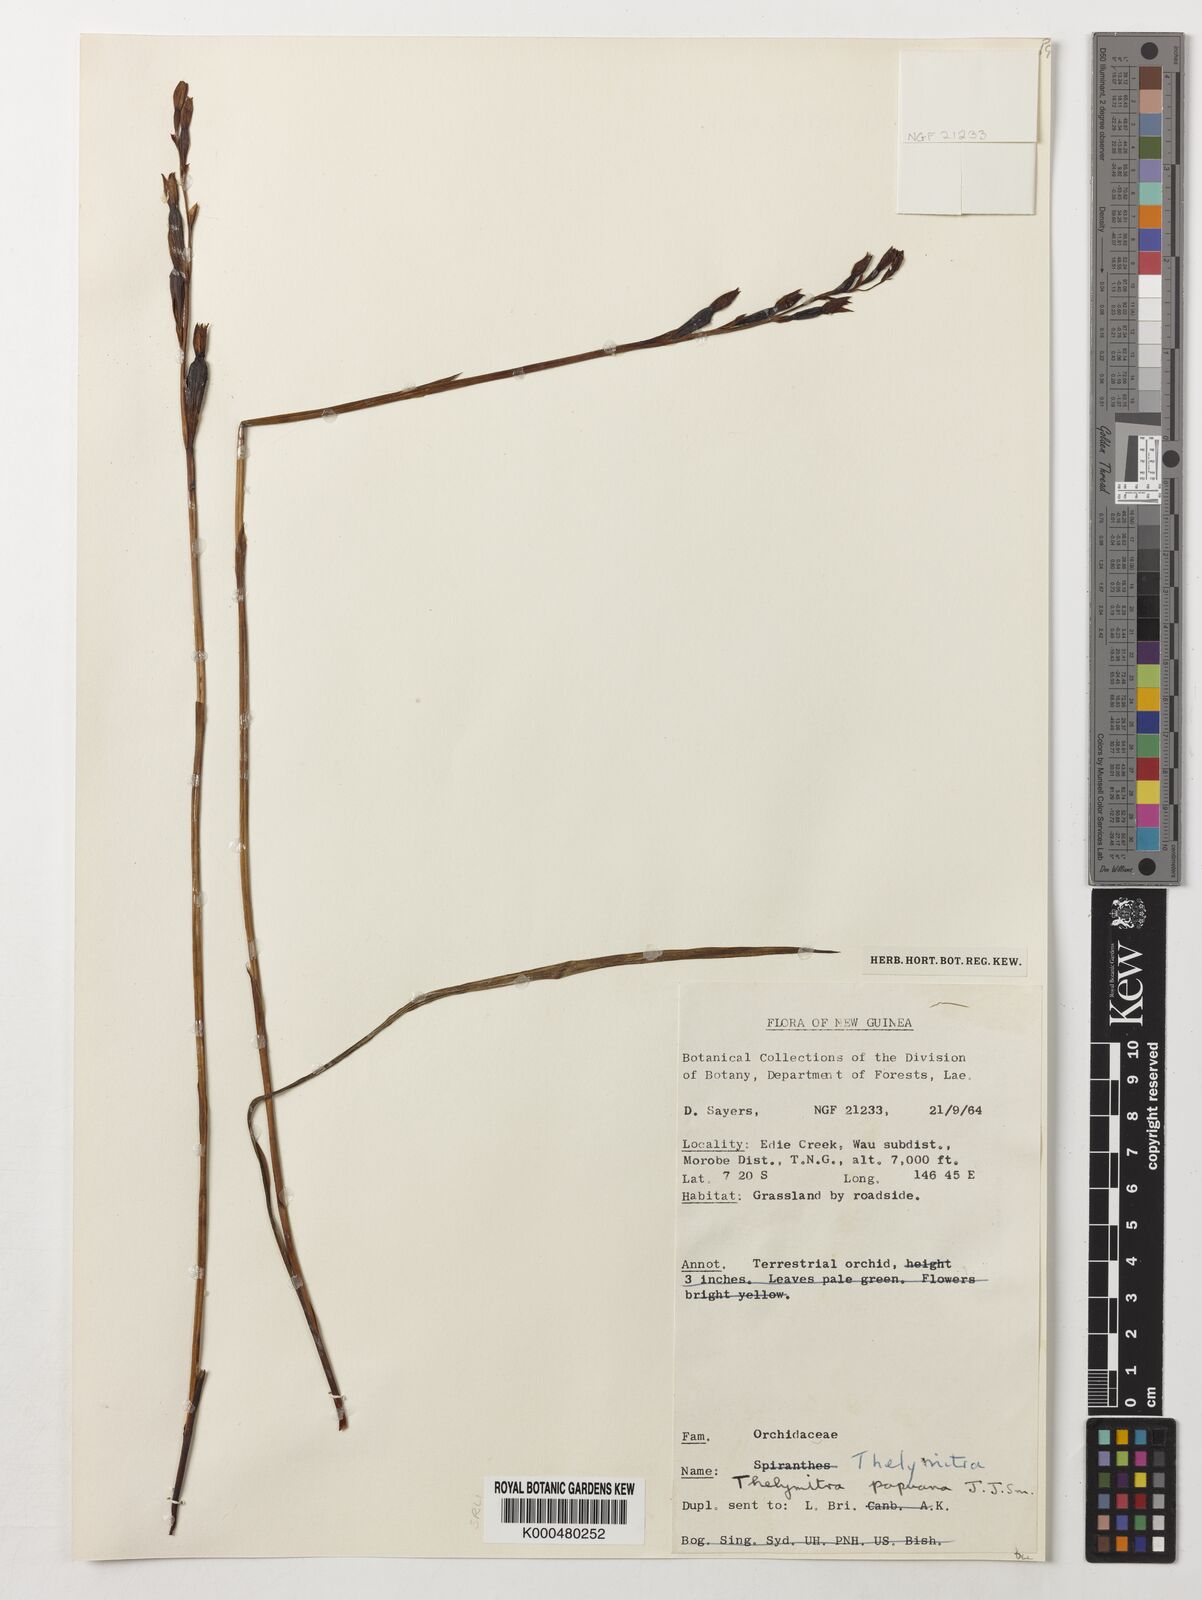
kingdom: Plantae
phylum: Tracheophyta
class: Liliopsida
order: Asparagales
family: Orchidaceae
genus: Thelymitra
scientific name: Thelymitra papuana
